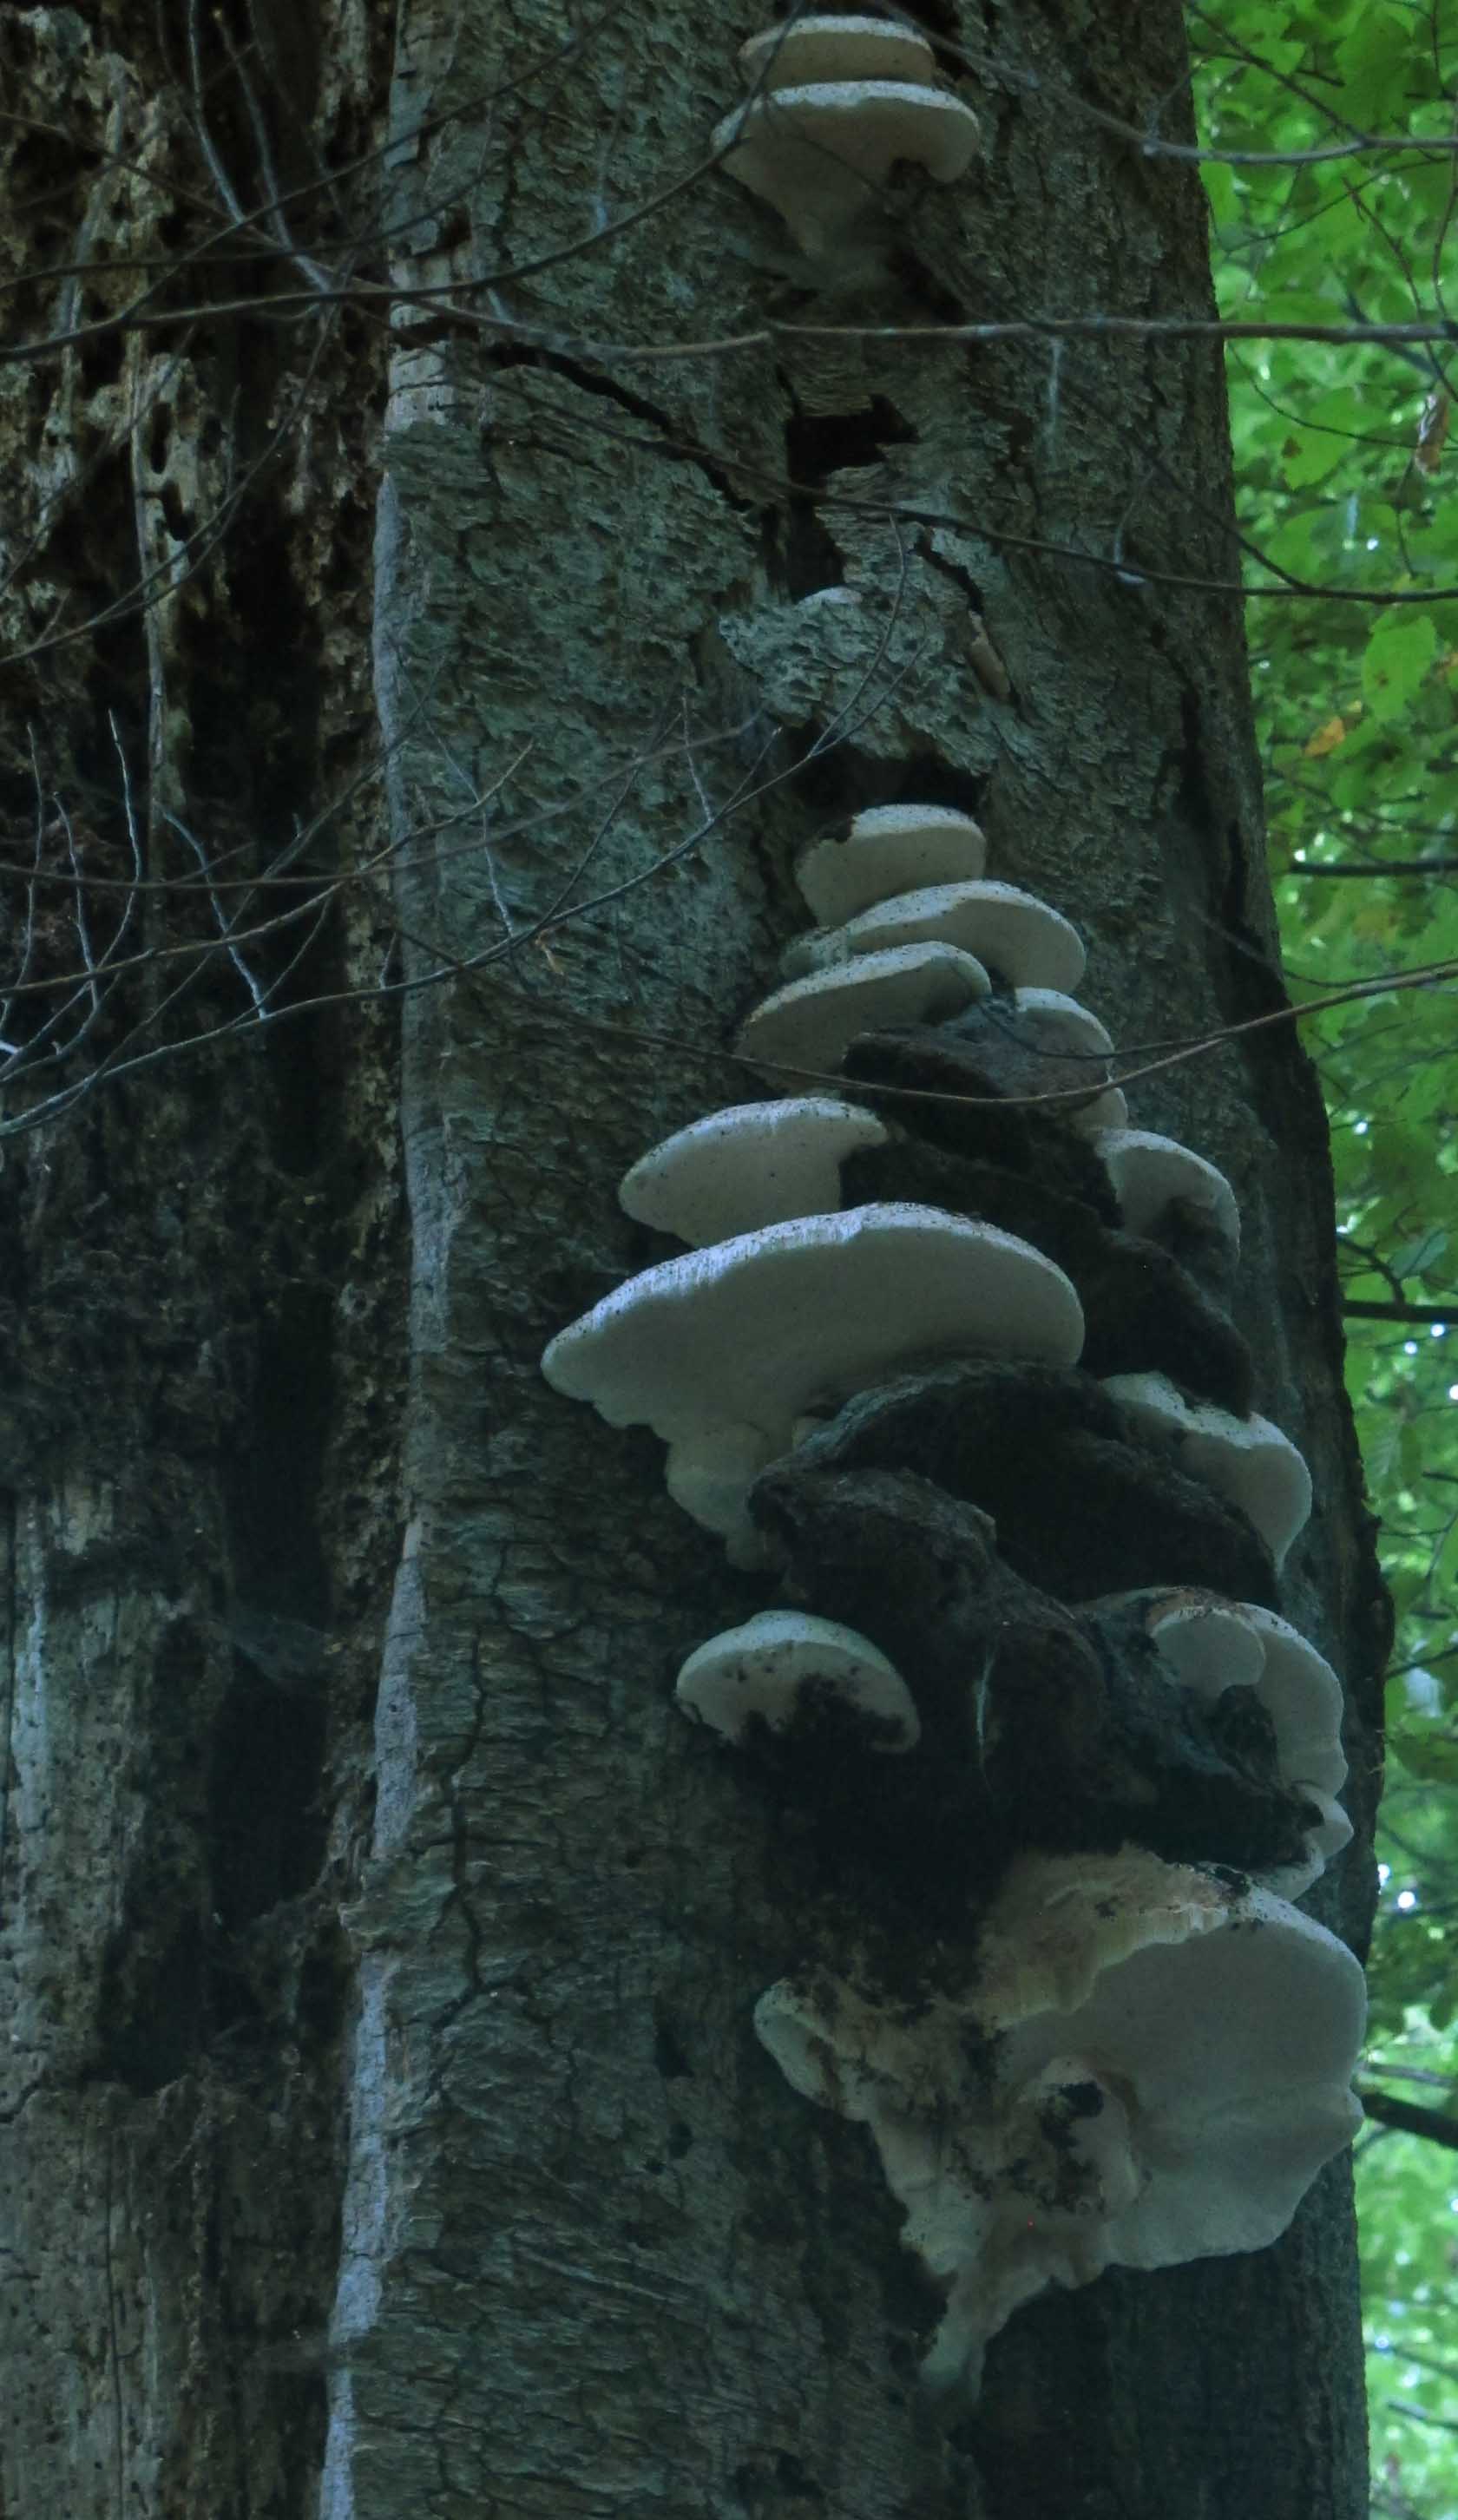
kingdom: Fungi
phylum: Basidiomycota
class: Agaricomycetes
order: Polyporales
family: Meruliaceae
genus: Pappia
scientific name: Pappia fissilis
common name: rosa fedtporesvamp
